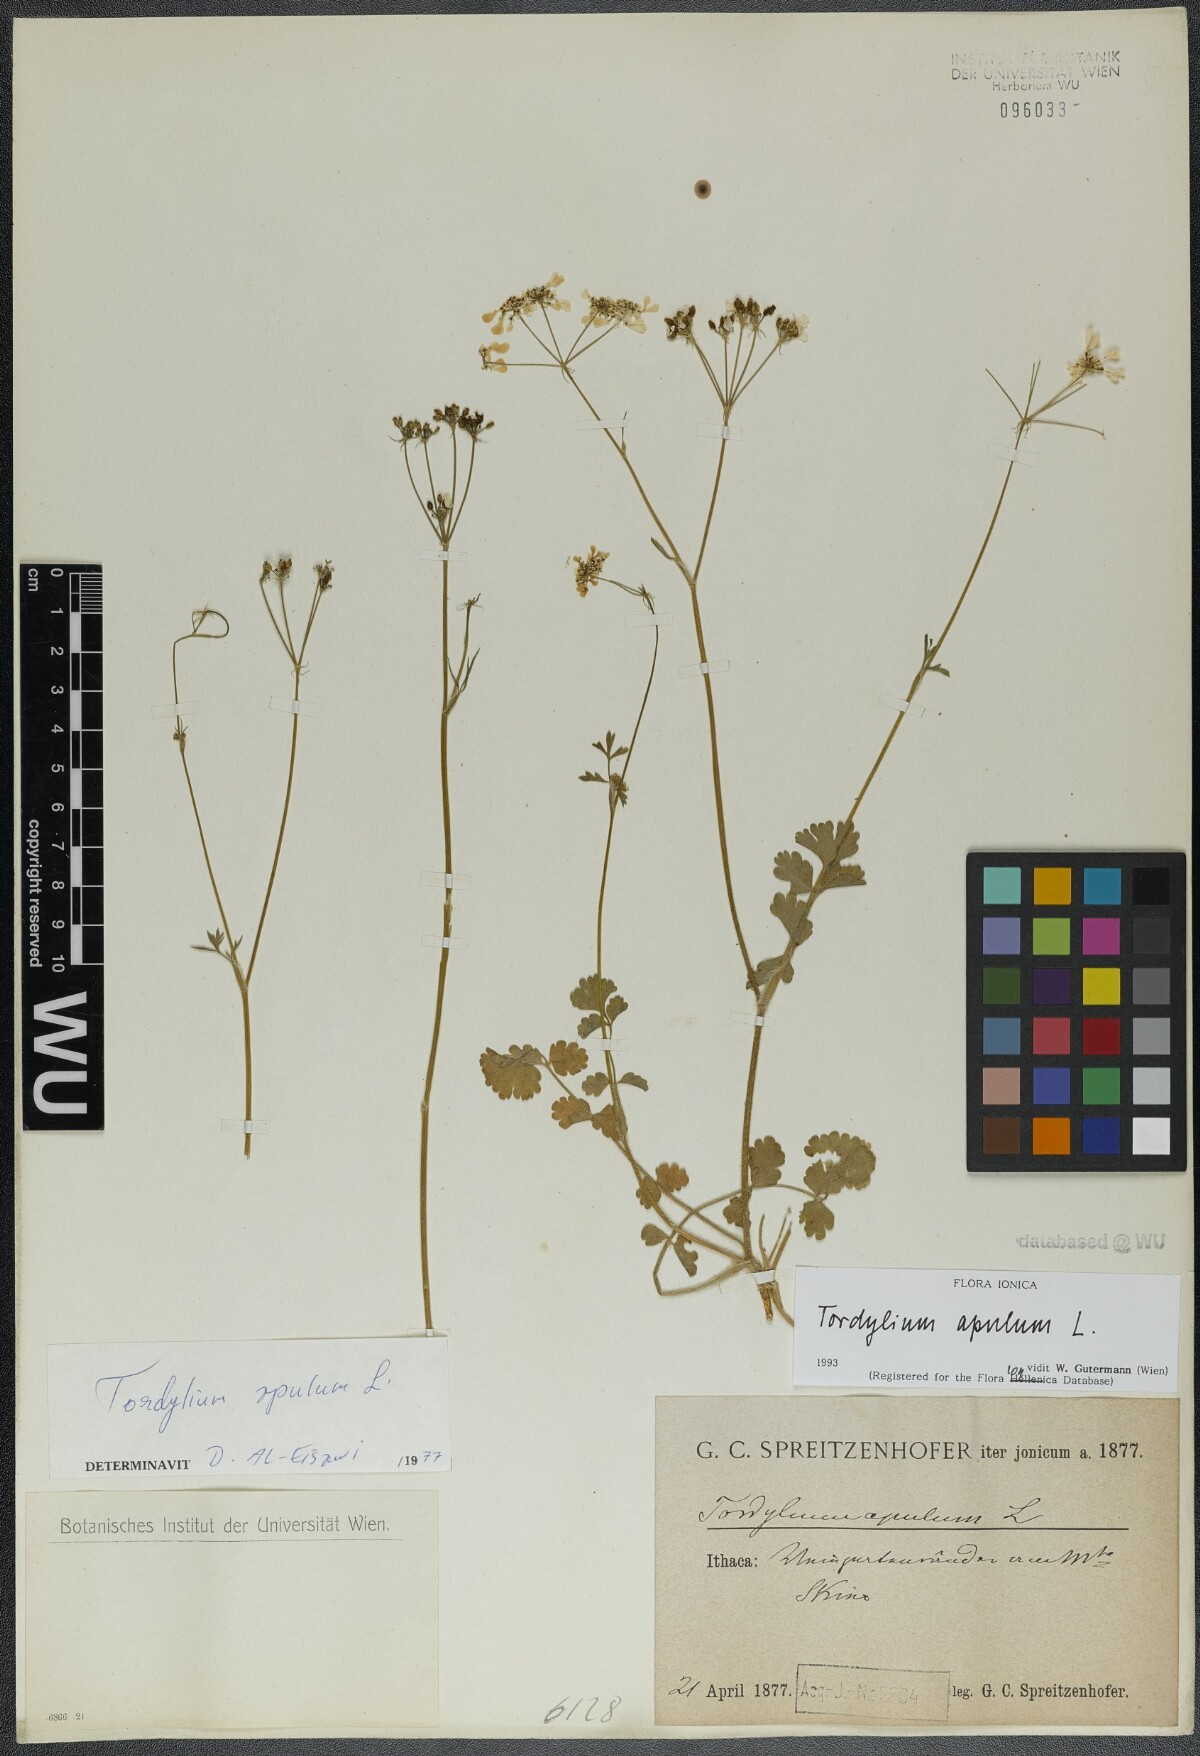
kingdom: Plantae
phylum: Tracheophyta
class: Magnoliopsida
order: Apiales
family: Apiaceae
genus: Tordylium
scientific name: Tordylium apulum
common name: Mediterranean hartwort
